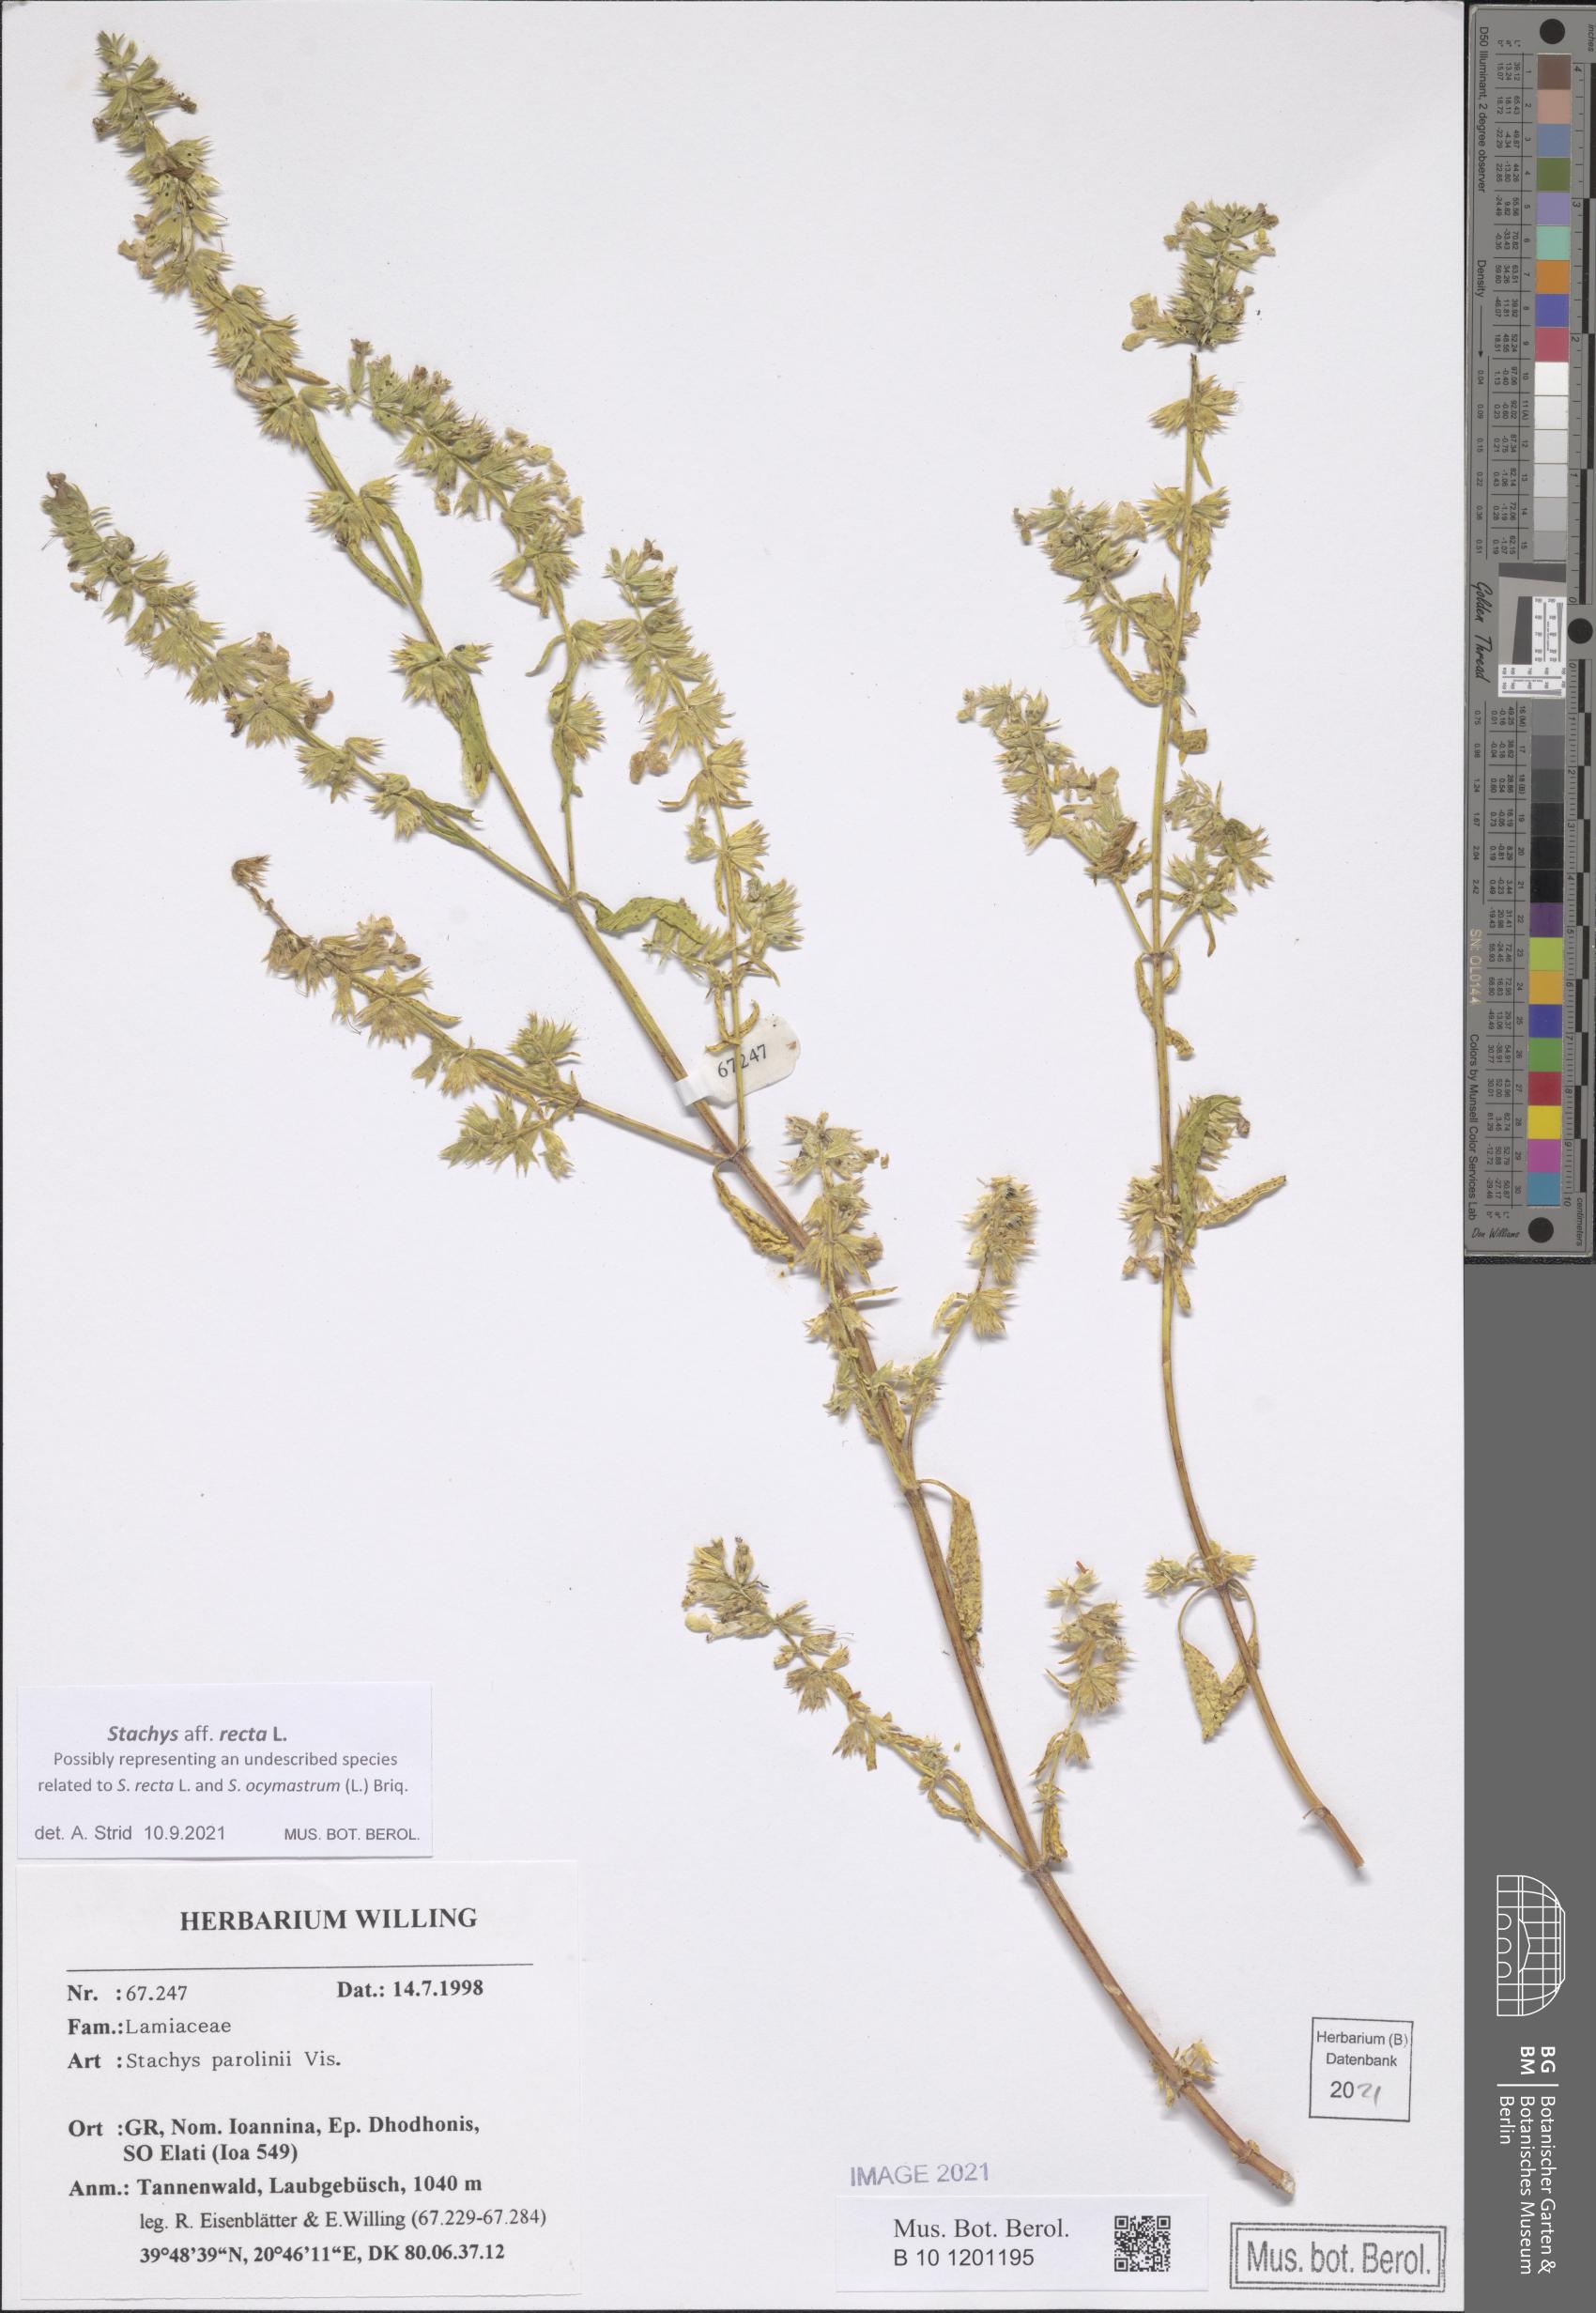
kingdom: Plantae
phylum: Tracheophyta
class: Magnoliopsida
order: Lamiales
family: Lamiaceae
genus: Stachys
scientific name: Stachys recta
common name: Perennial yellow-woundwort
